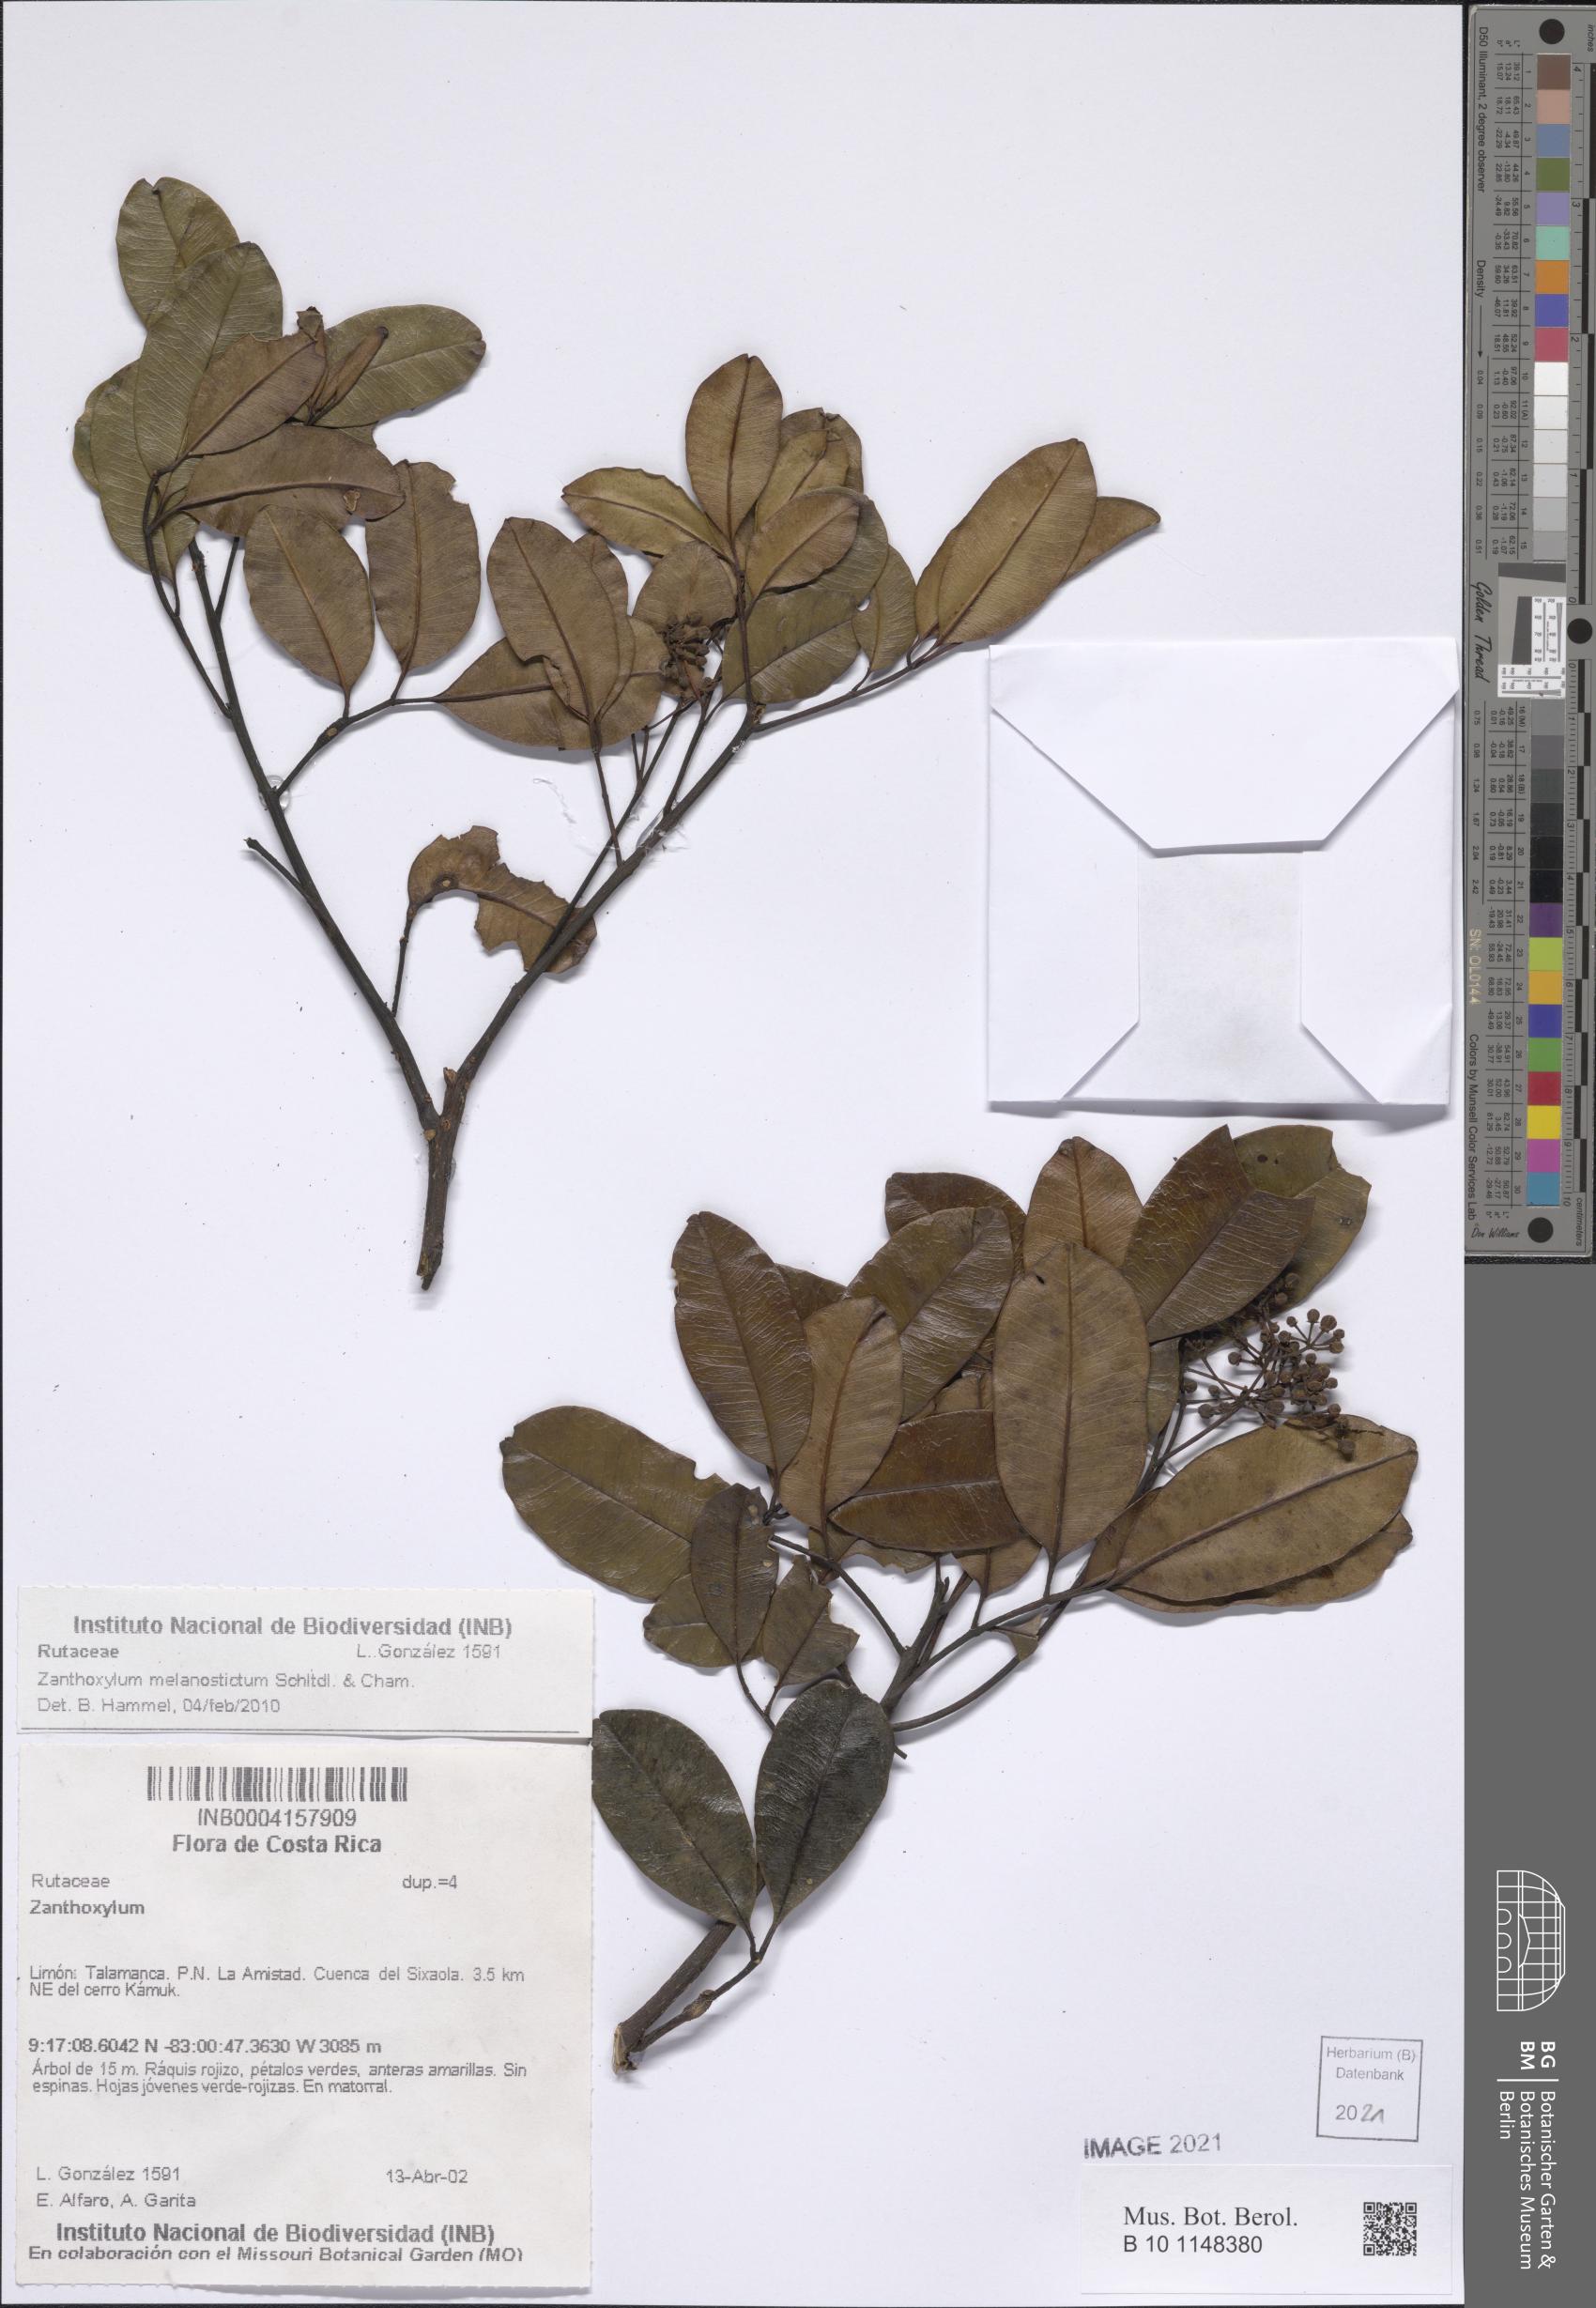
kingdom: Plantae
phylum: Tracheophyta
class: Magnoliopsida
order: Sapindales
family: Rutaceae
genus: Zanthoxylum
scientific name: Zanthoxylum melanostictum
